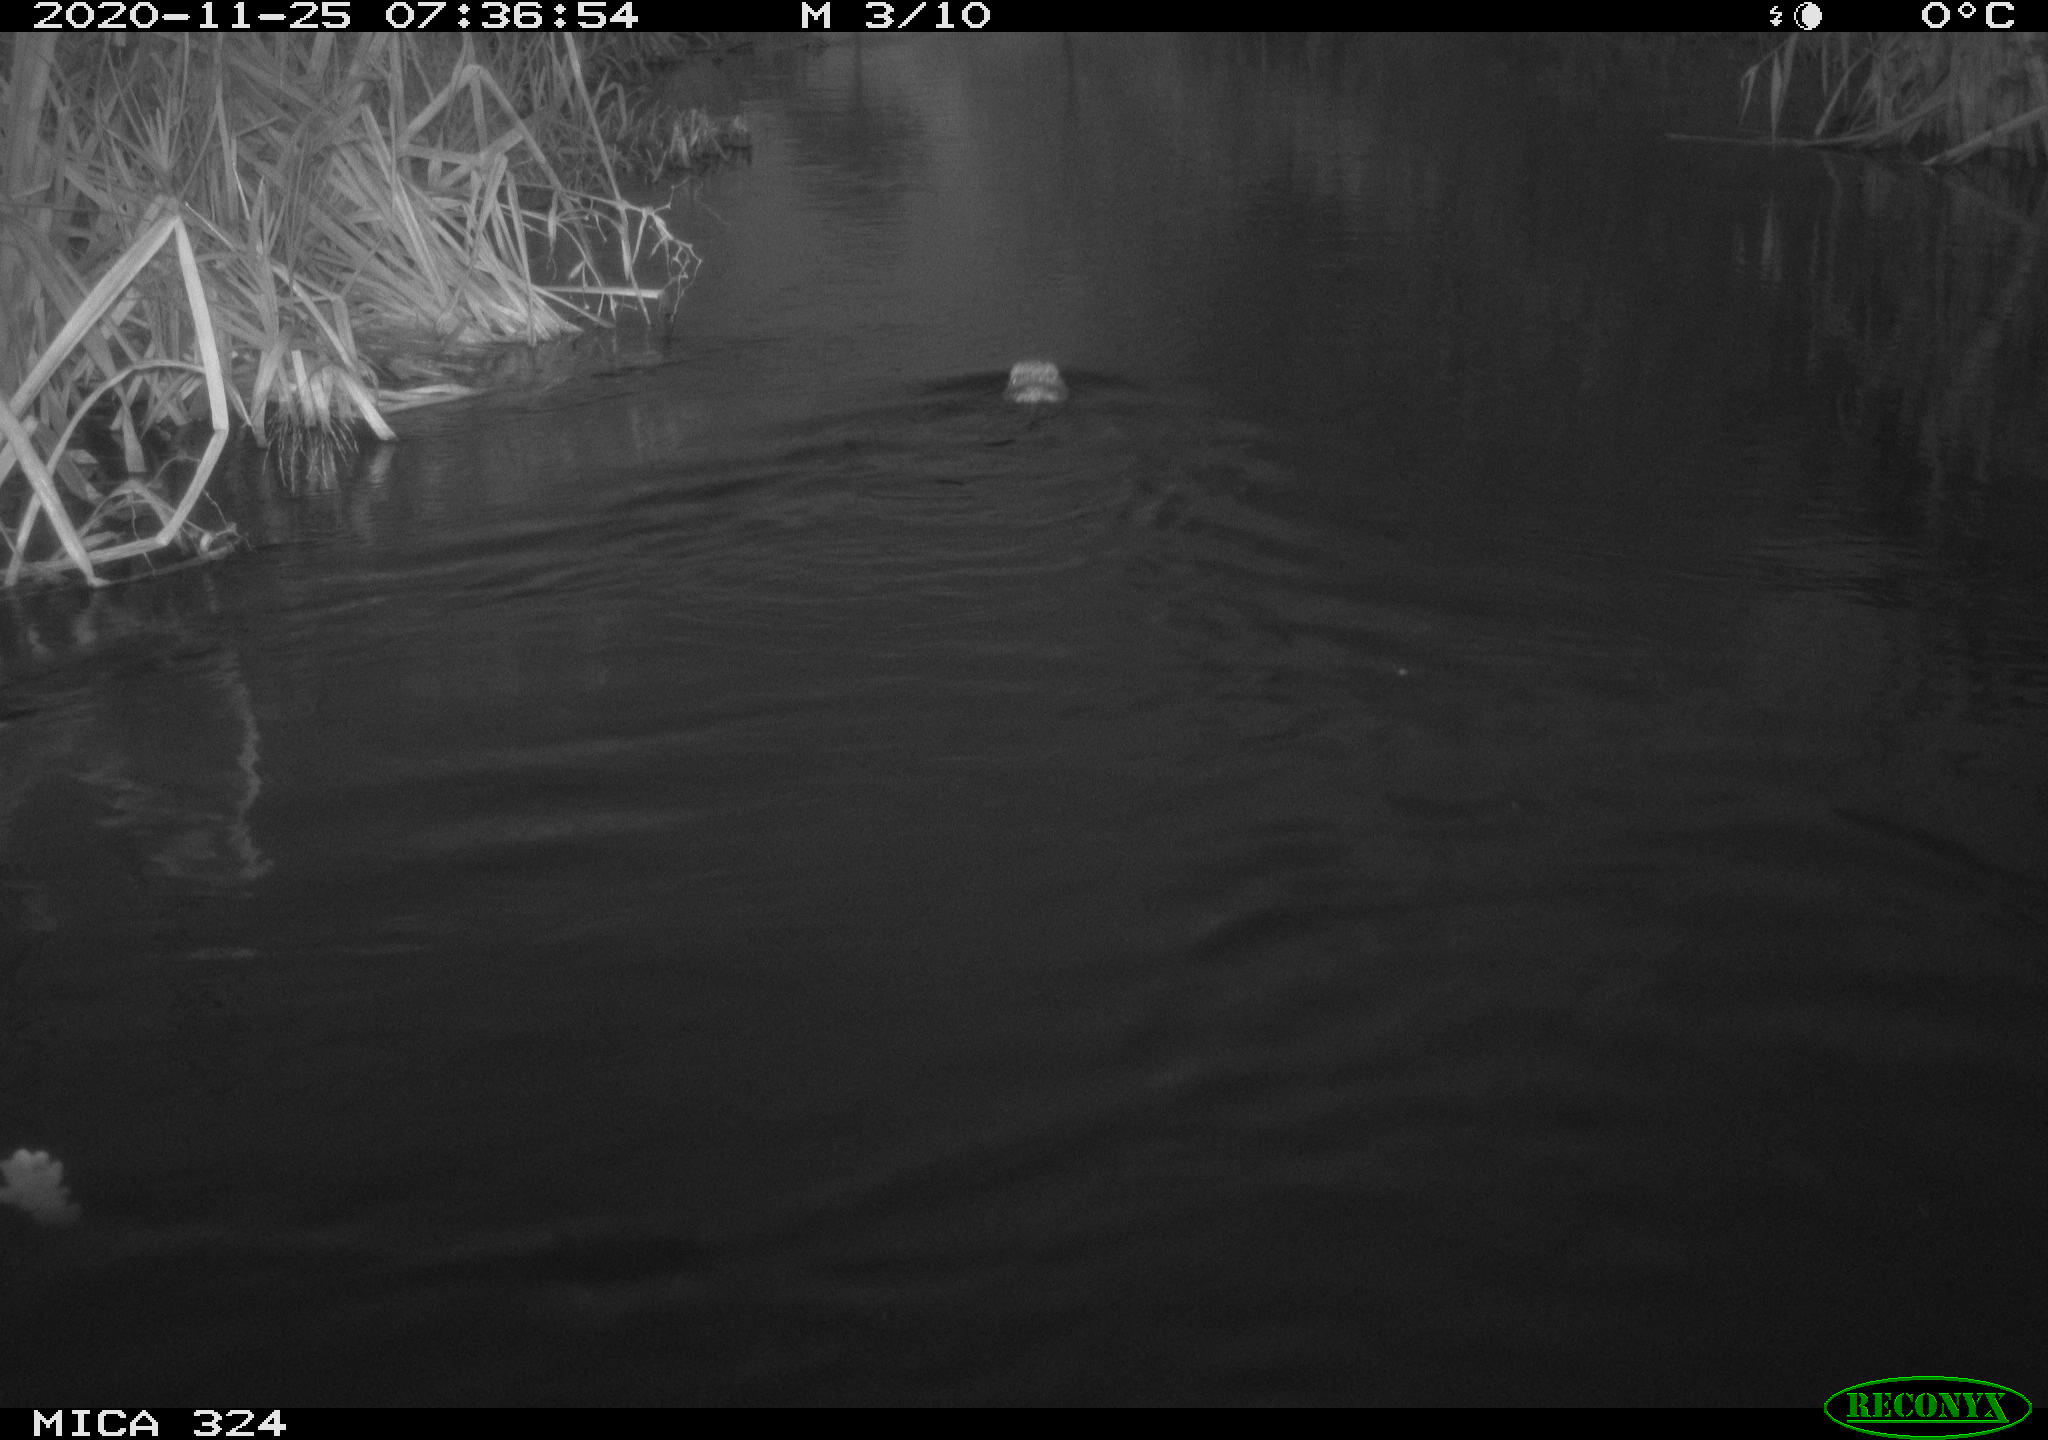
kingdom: Animalia
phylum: Chordata
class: Mammalia
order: Rodentia
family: Cricetidae
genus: Ondatra
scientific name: Ondatra zibethicus
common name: Muskrat
